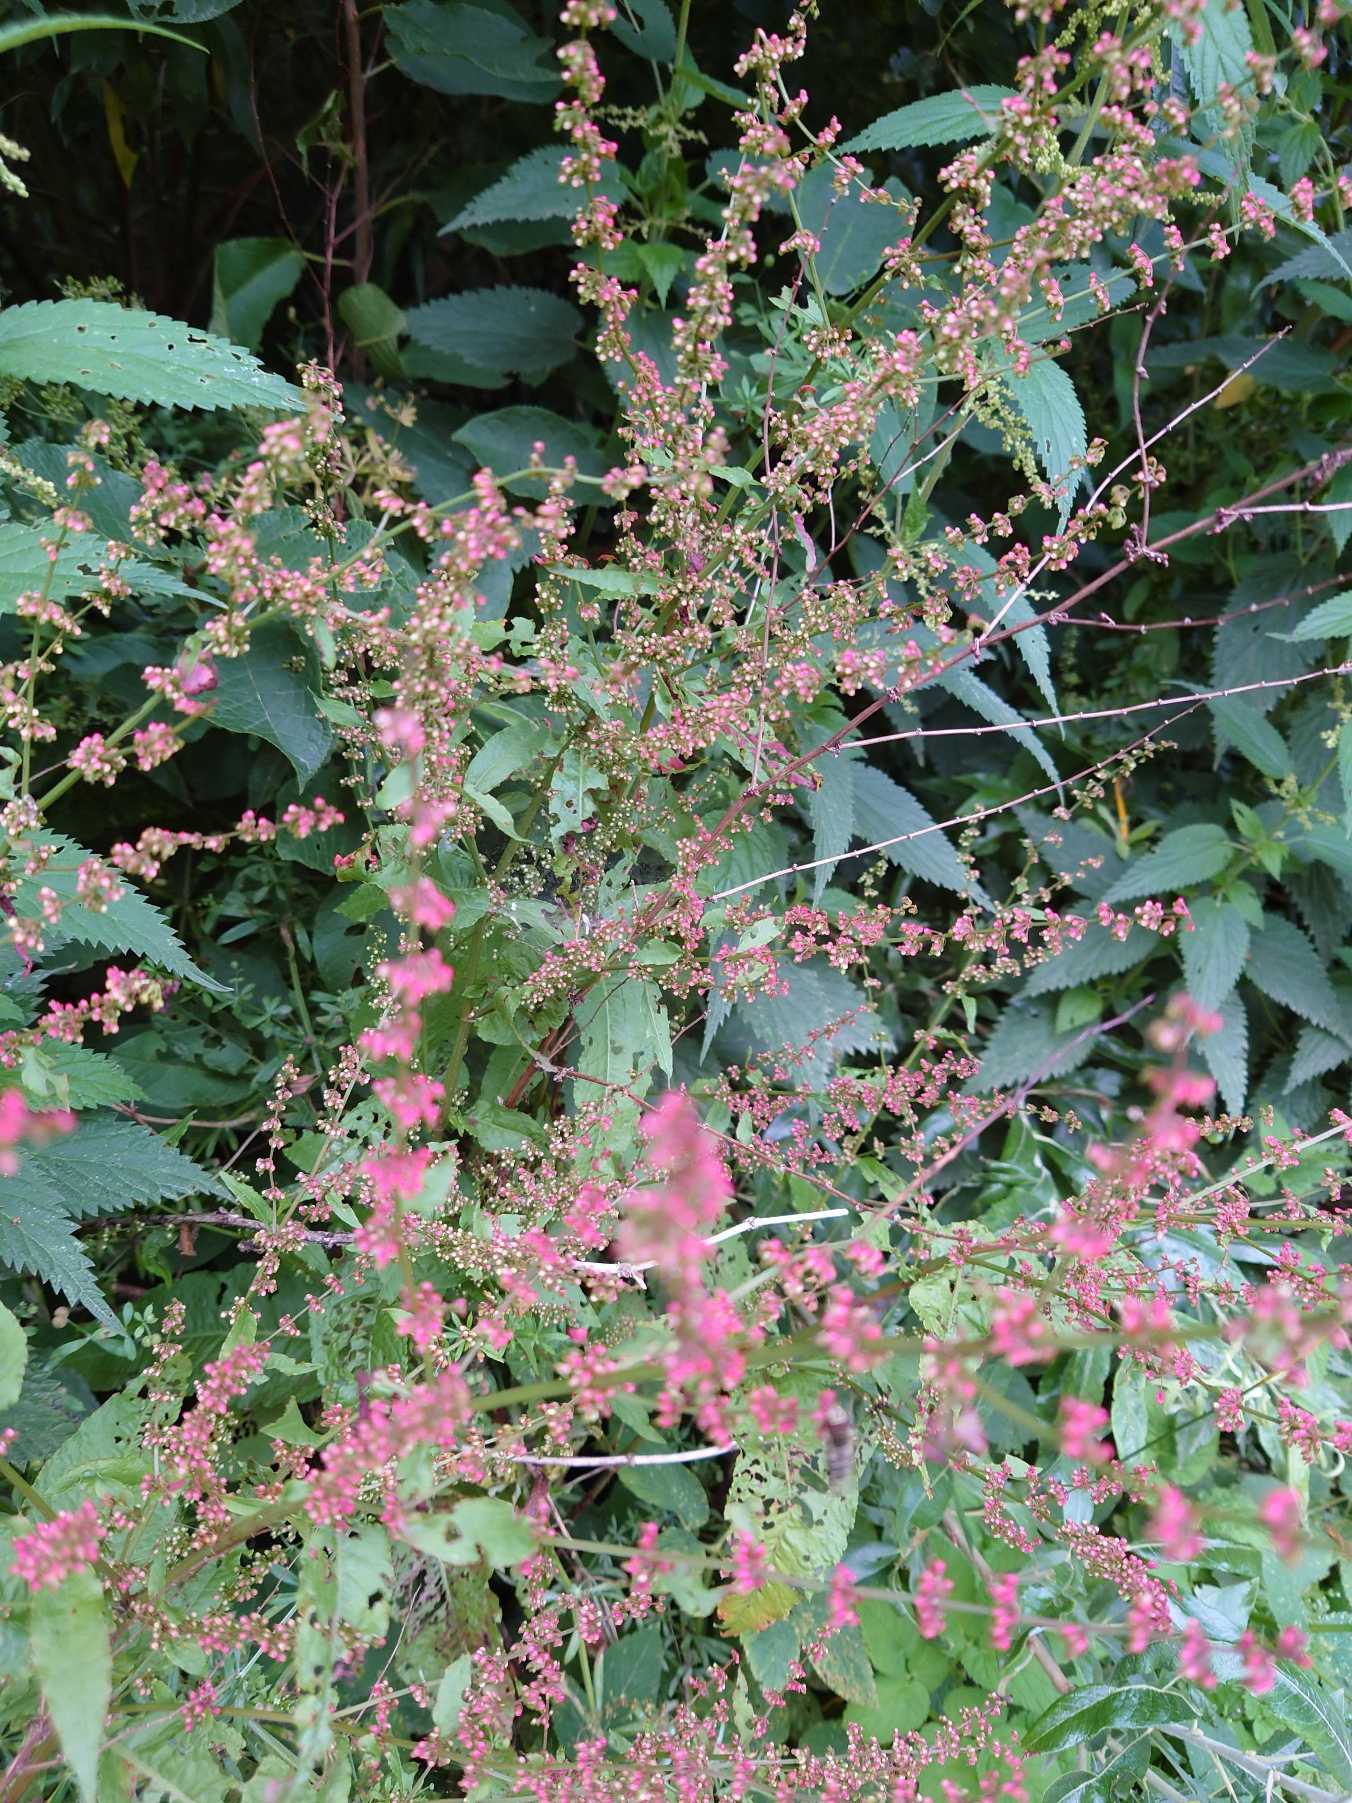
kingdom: Plantae
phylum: Tracheophyta
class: Magnoliopsida
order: Caryophyllales
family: Polygonaceae
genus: Rumex
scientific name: Rumex sanguineus
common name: Skov-skræppe
